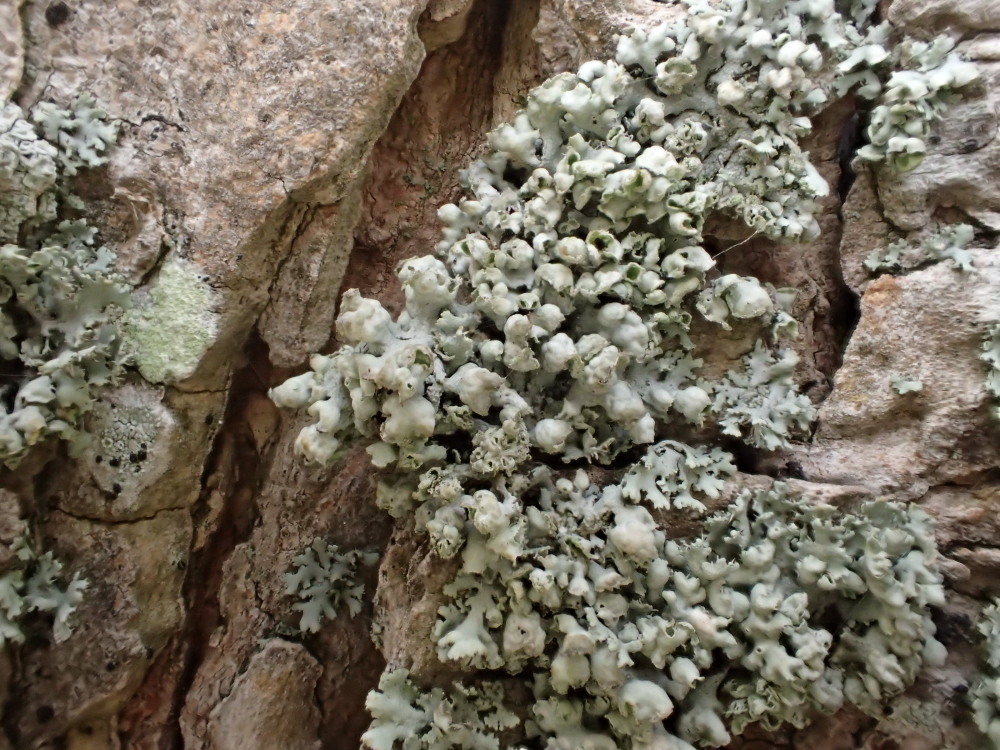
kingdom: Fungi
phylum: Ascomycota
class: Lecanoromycetes
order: Caliciales
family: Physciaceae
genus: Physcia
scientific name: Physcia adscendens
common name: hætte-rosetlav
